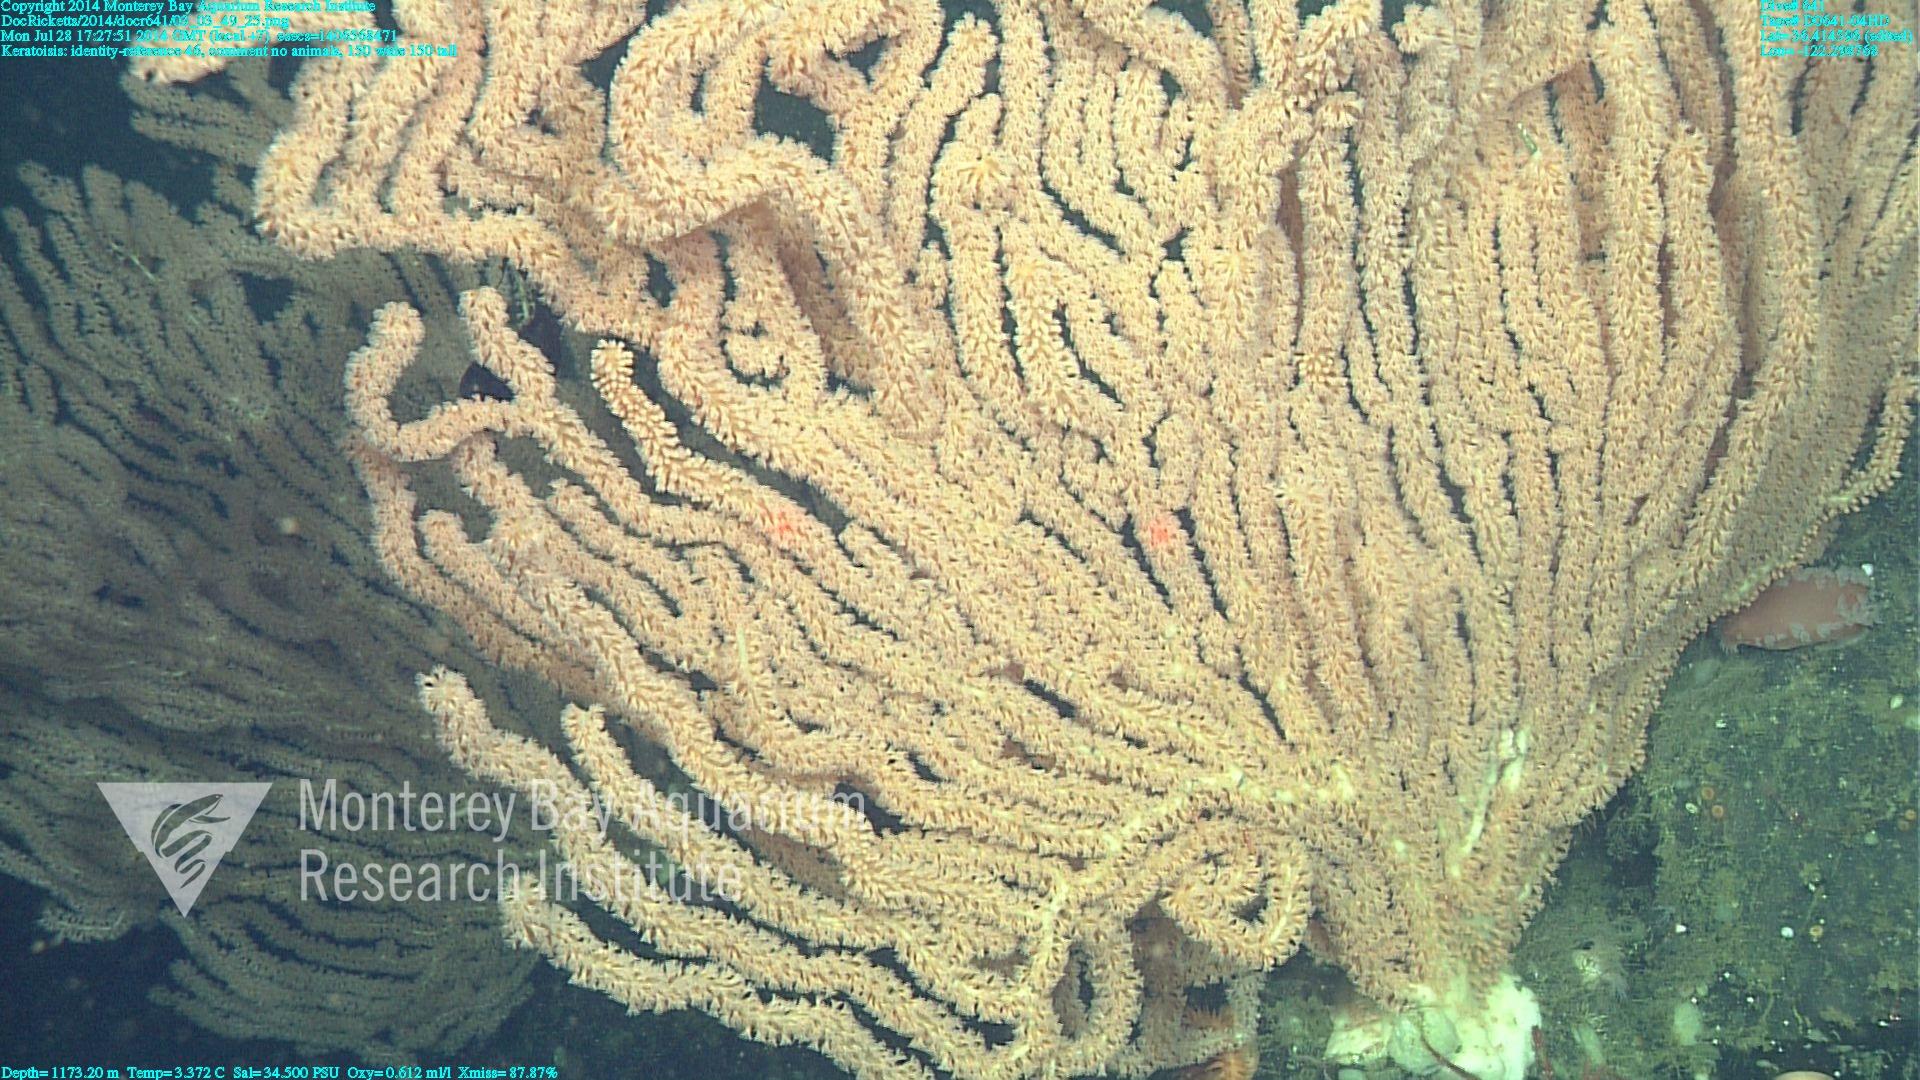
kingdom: Animalia
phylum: Cnidaria
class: Anthozoa
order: Scleralcyonacea
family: Keratoisididae
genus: Keratoisis
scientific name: Keratoisis
